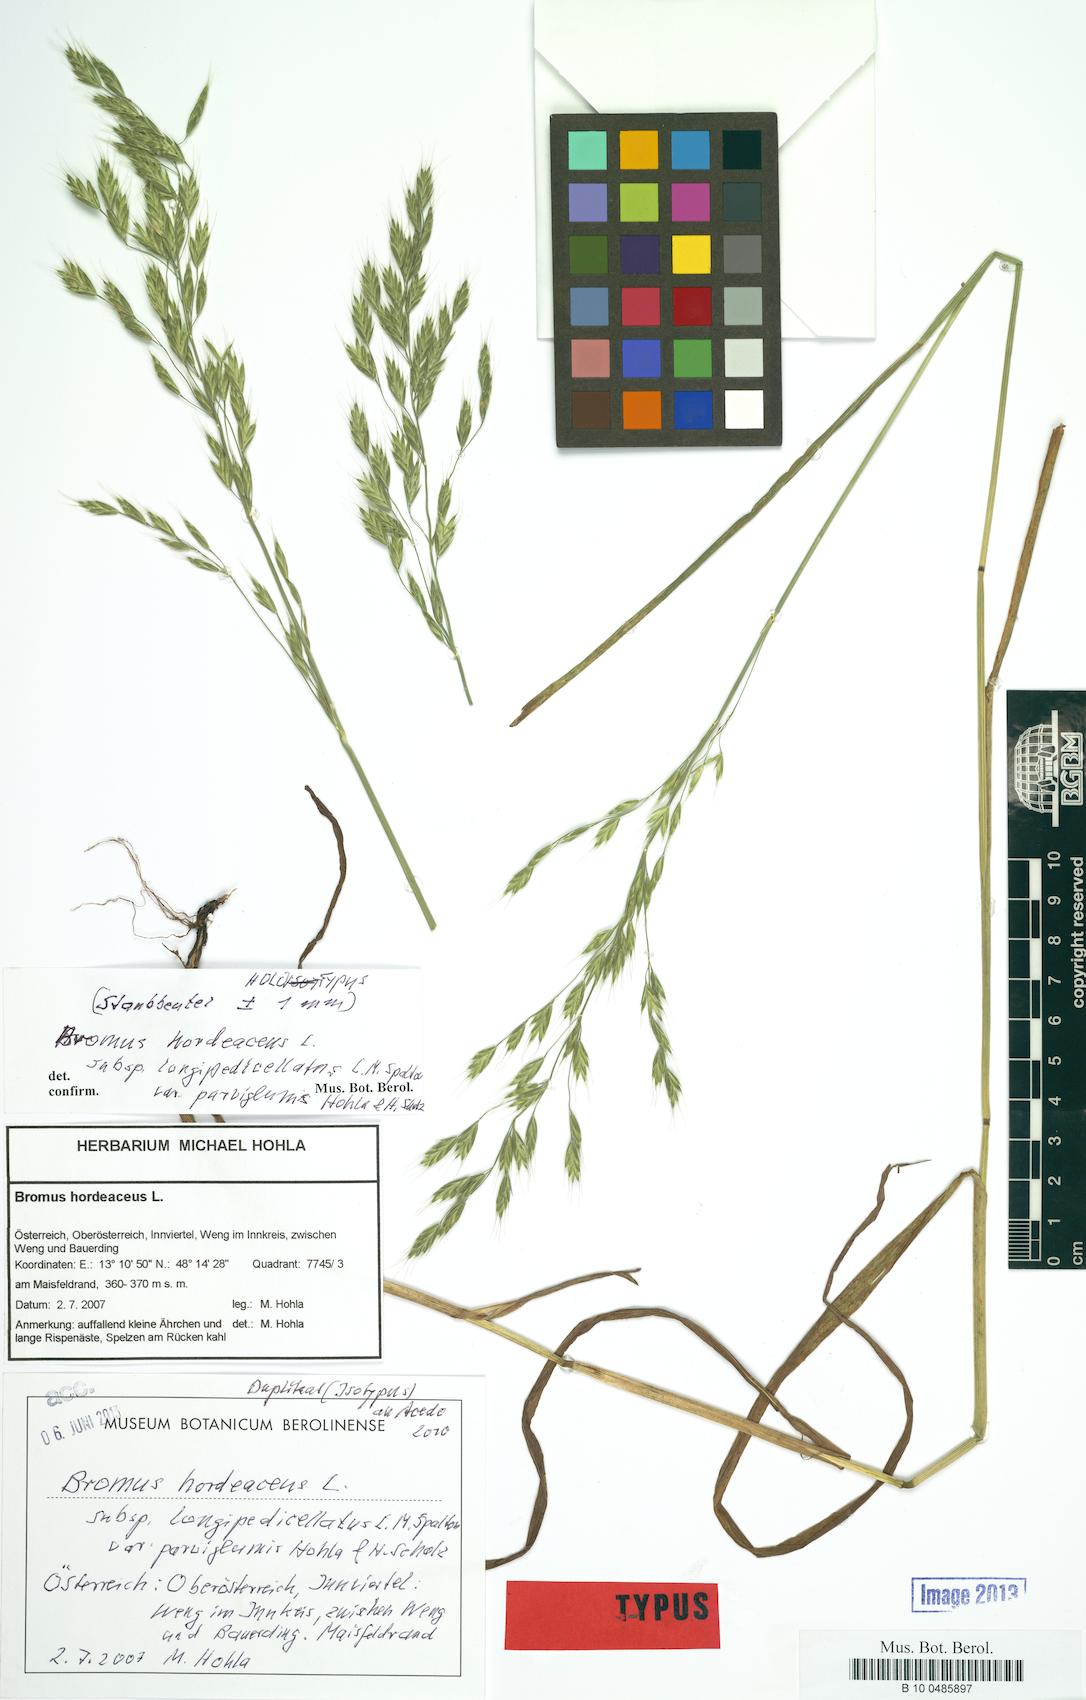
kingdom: Plantae
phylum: Tracheophyta
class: Liliopsida
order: Poales
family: Poaceae
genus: Bromus
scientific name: Bromus hordeaceus
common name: Soft brome
